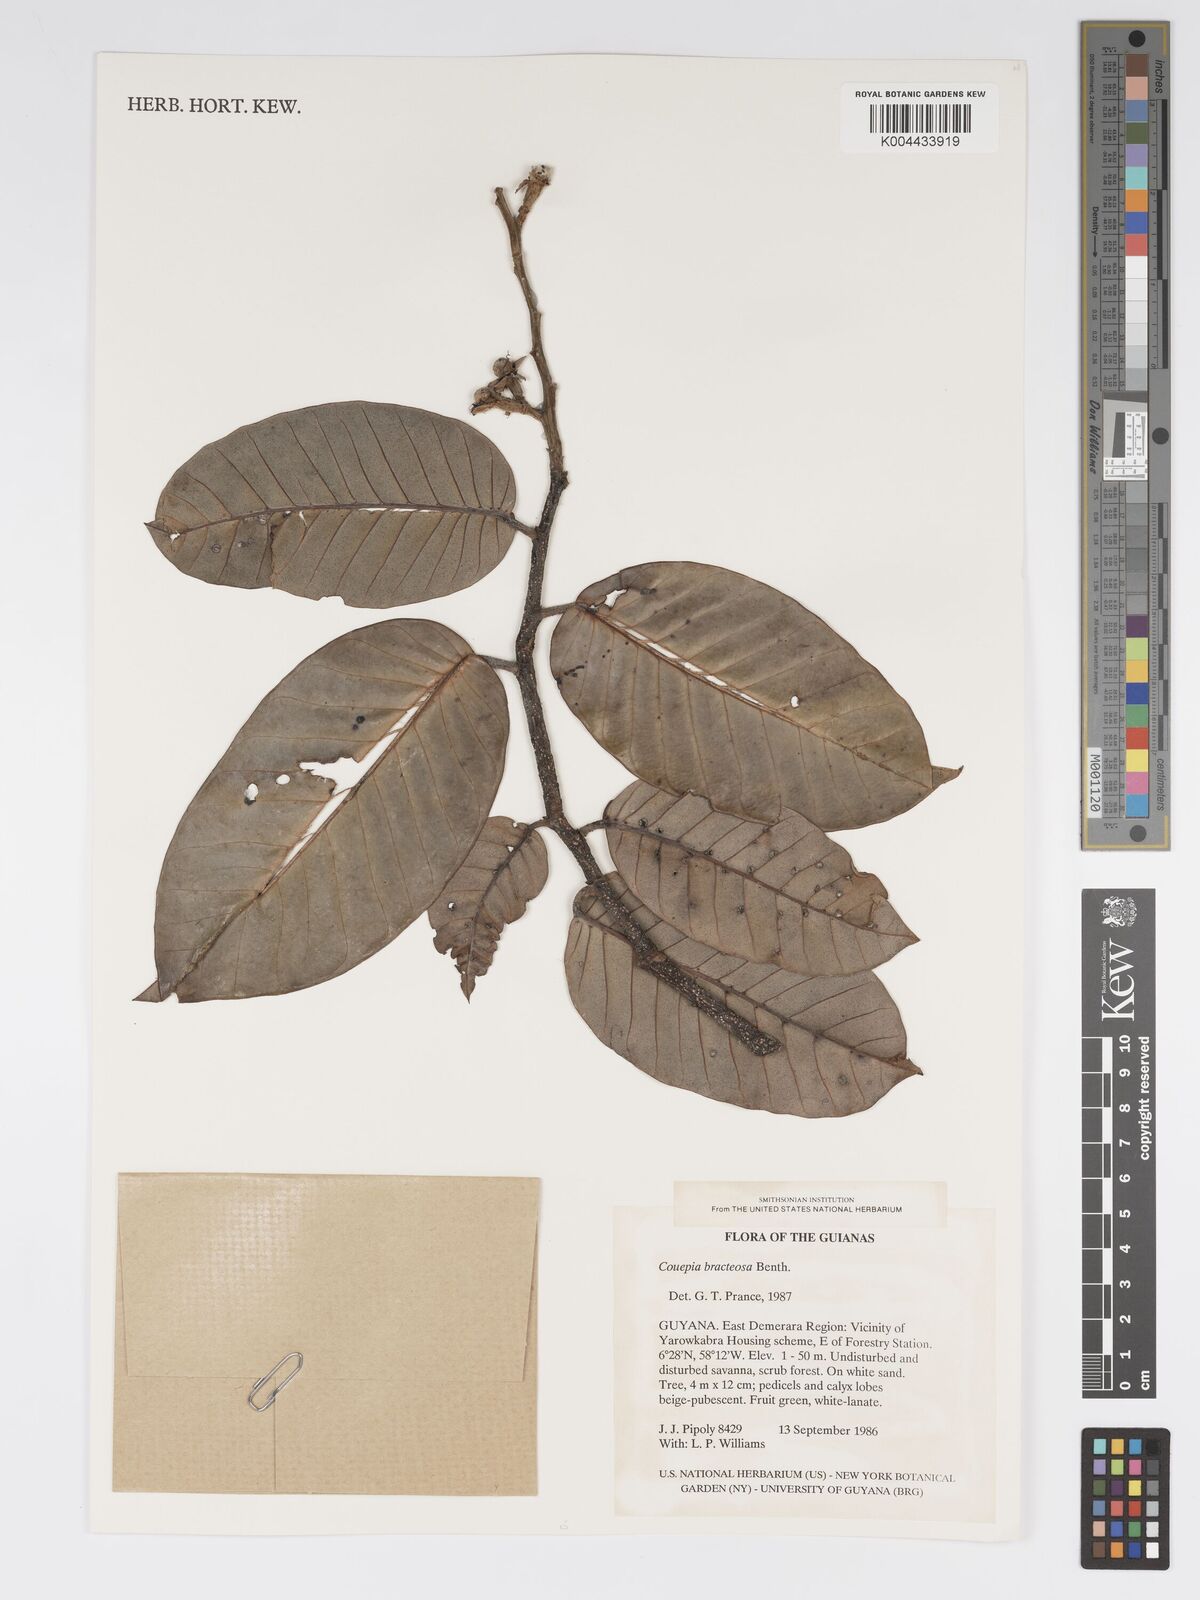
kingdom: Plantae
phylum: Tracheophyta
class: Magnoliopsida
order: Malpighiales
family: Chrysobalanaceae
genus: Couepia
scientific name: Couepia bracteosa
